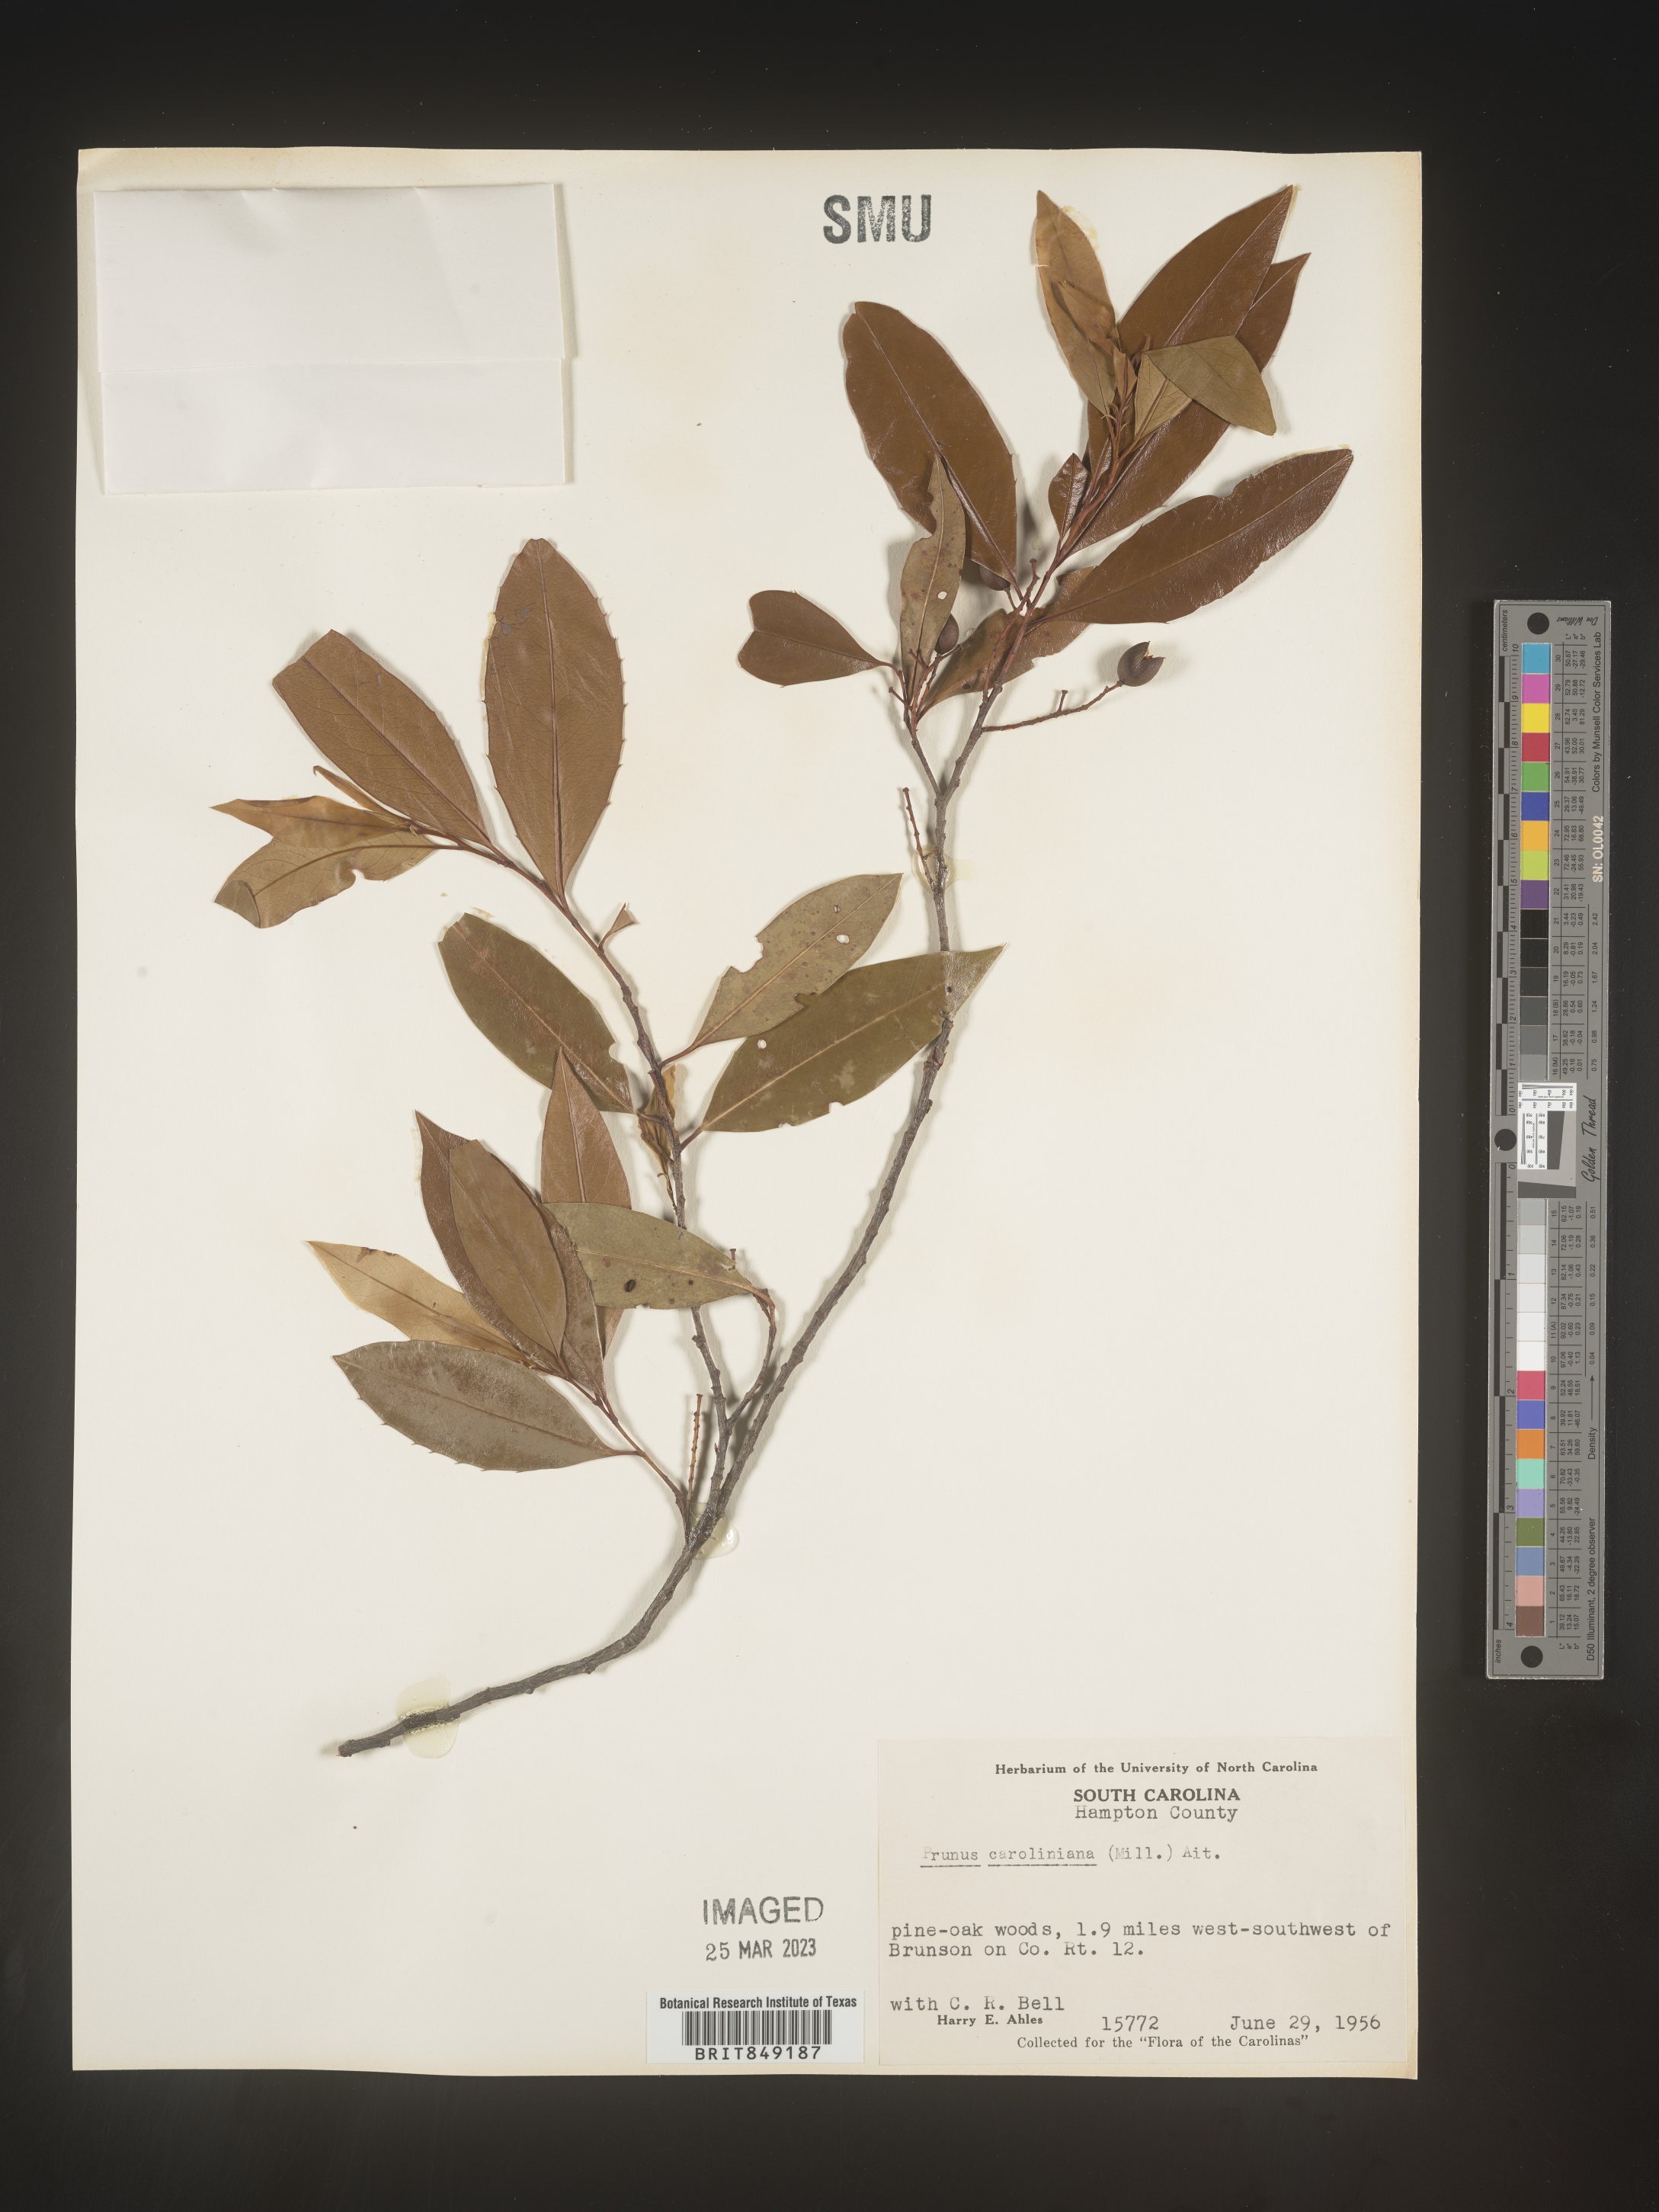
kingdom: Plantae
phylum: Tracheophyta
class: Magnoliopsida
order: Rosales
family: Rosaceae
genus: Prunus
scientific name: Prunus
